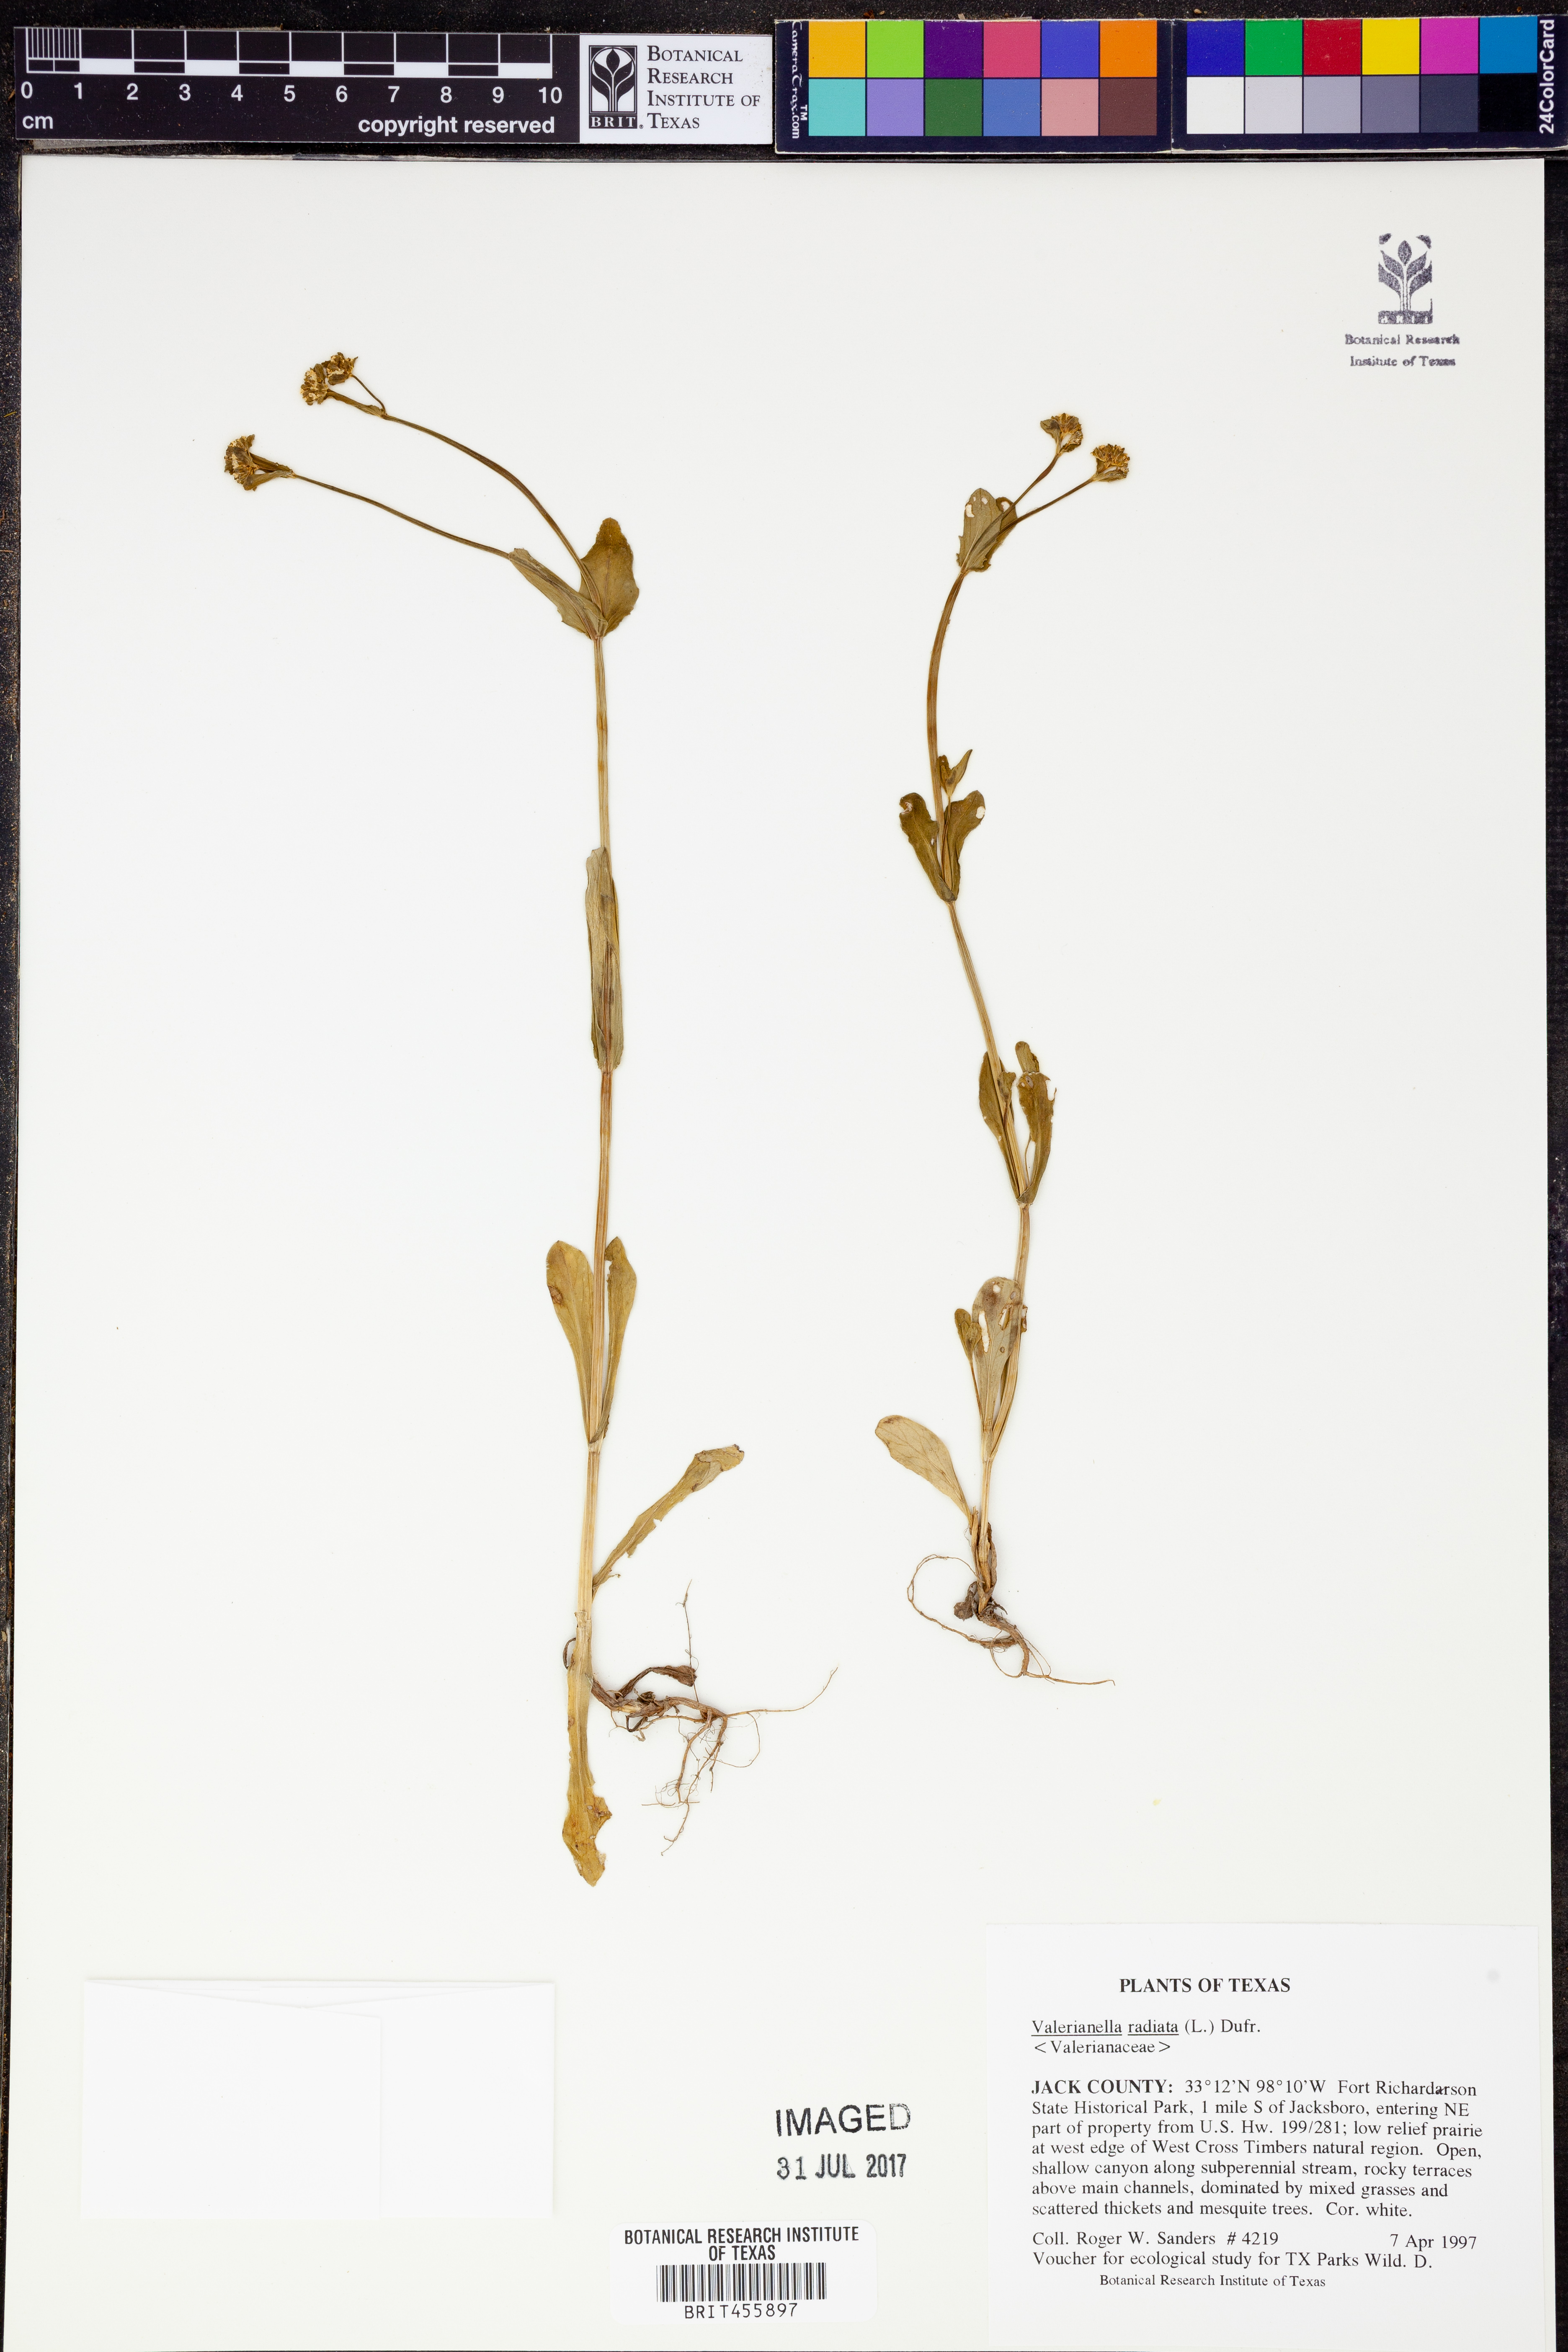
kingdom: Plantae
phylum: Tracheophyta
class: Magnoliopsida
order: Dipsacales
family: Caprifoliaceae
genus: Valerianella
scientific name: Valerianella radiata
